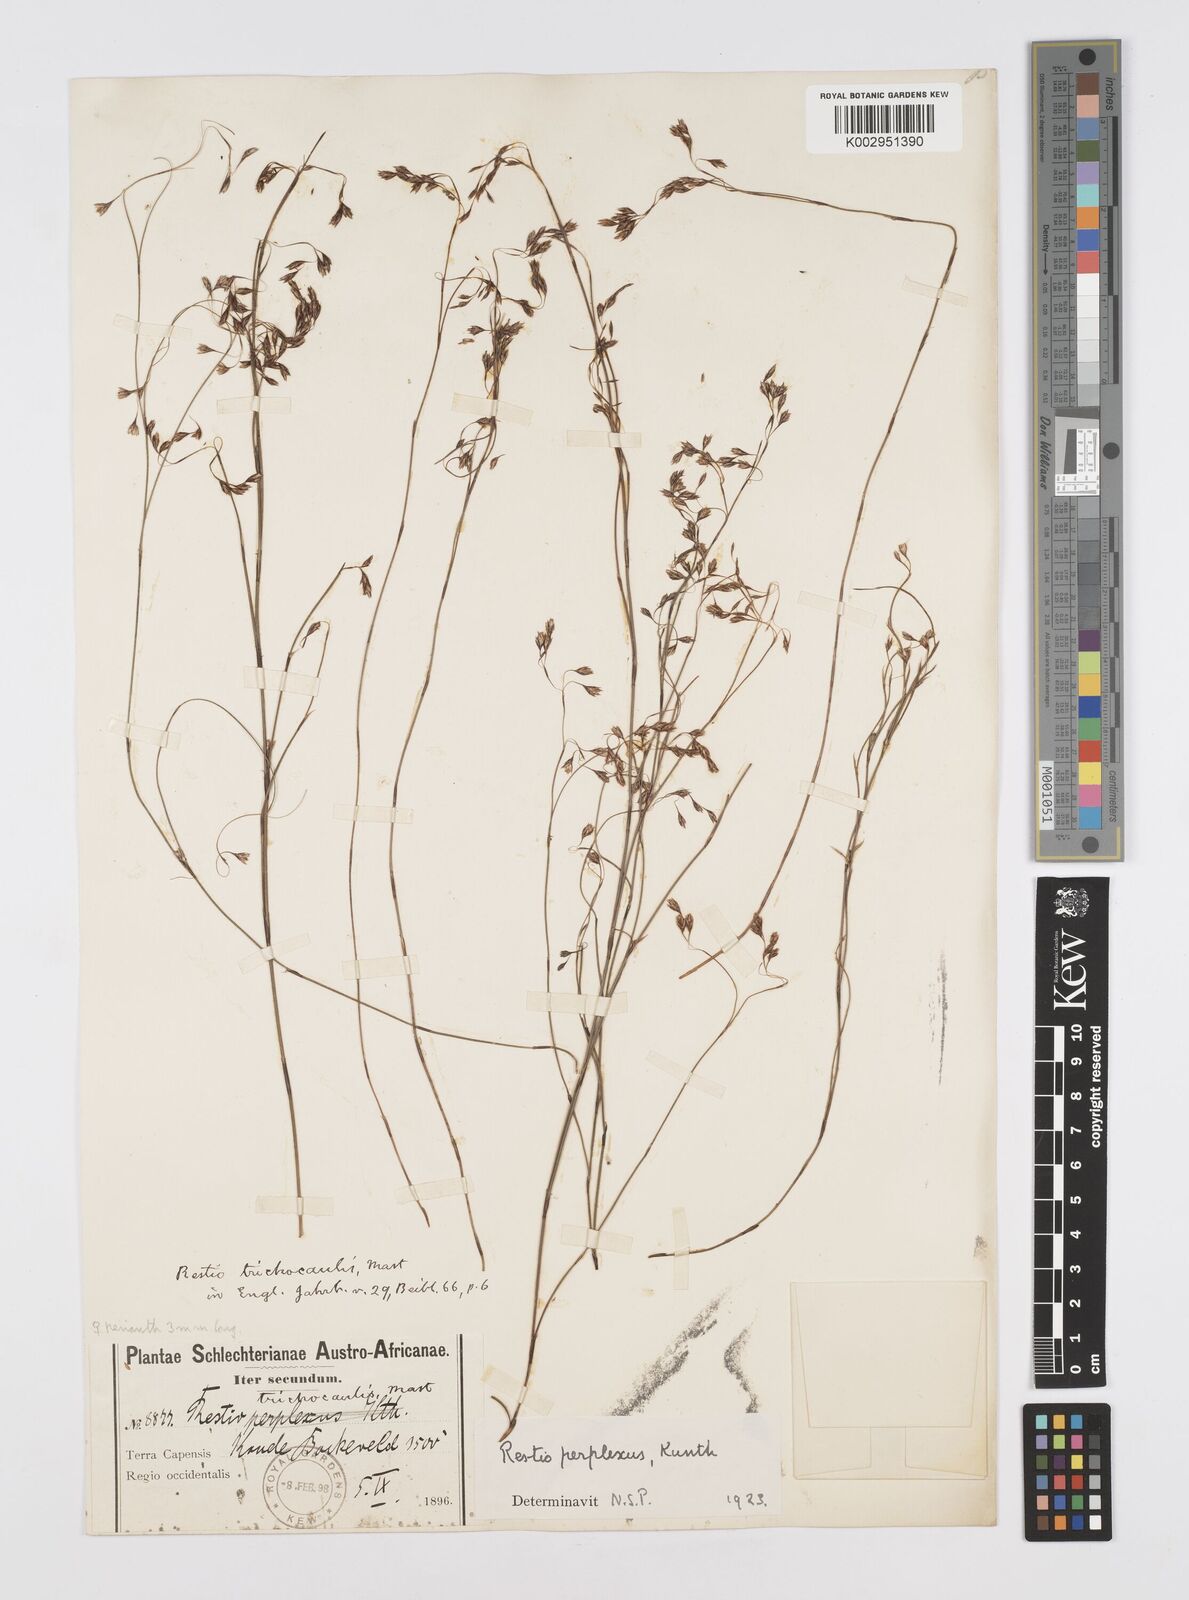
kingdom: Plantae
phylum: Tracheophyta
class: Liliopsida
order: Poales
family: Restionaceae
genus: Restio
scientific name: Restio perplexus
